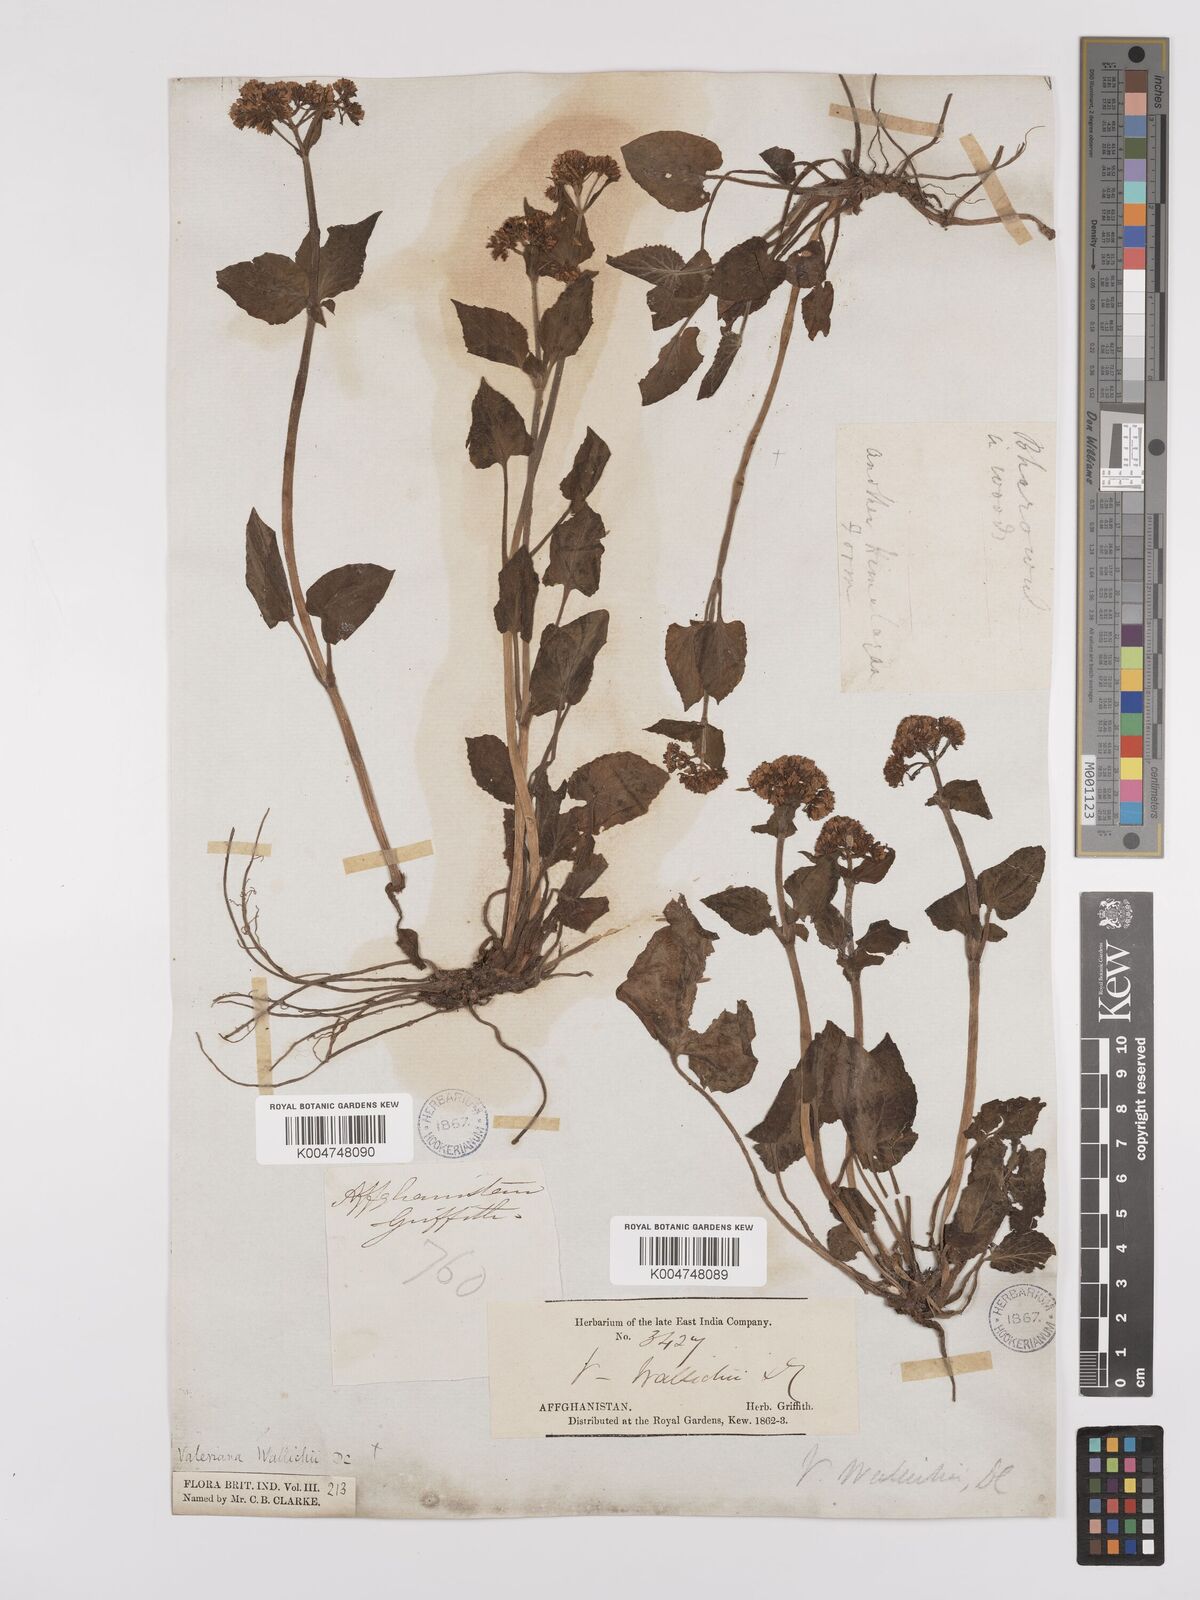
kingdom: Plantae
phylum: Tracheophyta
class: Magnoliopsida
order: Dipsacales
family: Caprifoliaceae
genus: Valeriana
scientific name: Valeriana
